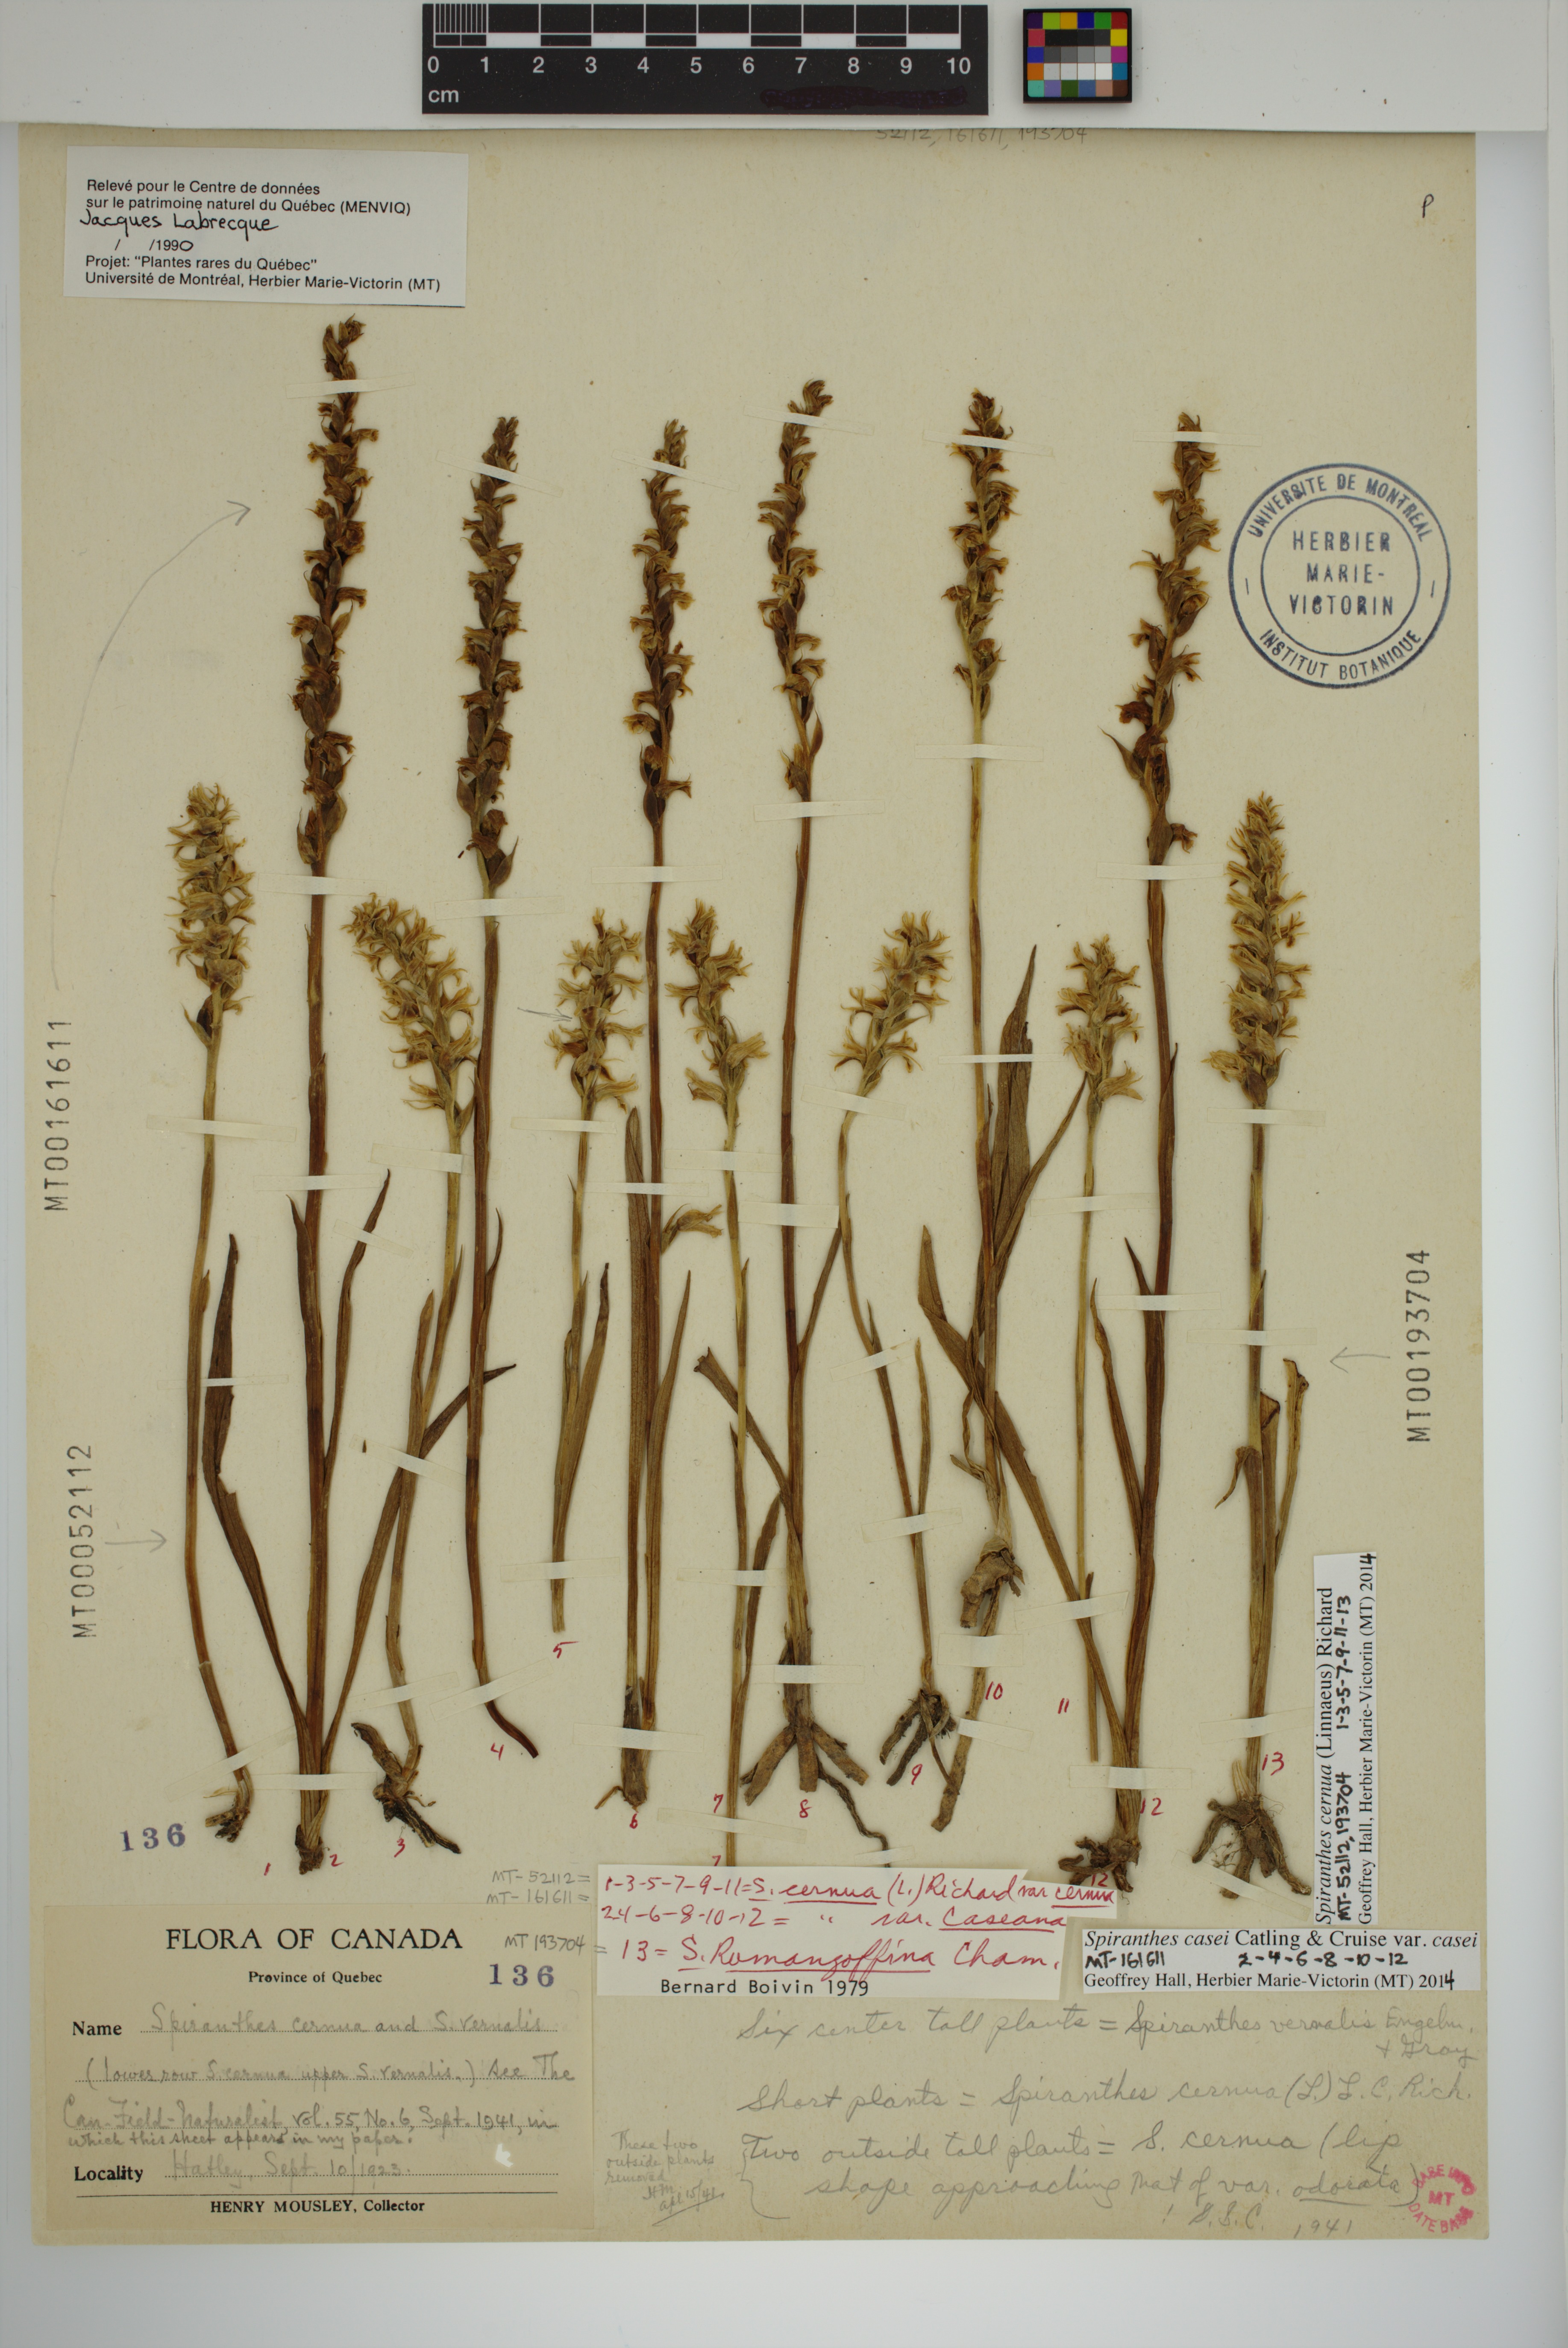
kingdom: Plantae
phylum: Tracheophyta
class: Liliopsida
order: Asparagales
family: Orchidaceae
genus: Spiranthes
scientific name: Spiranthes cernua
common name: Dropping ladies'-tresses
